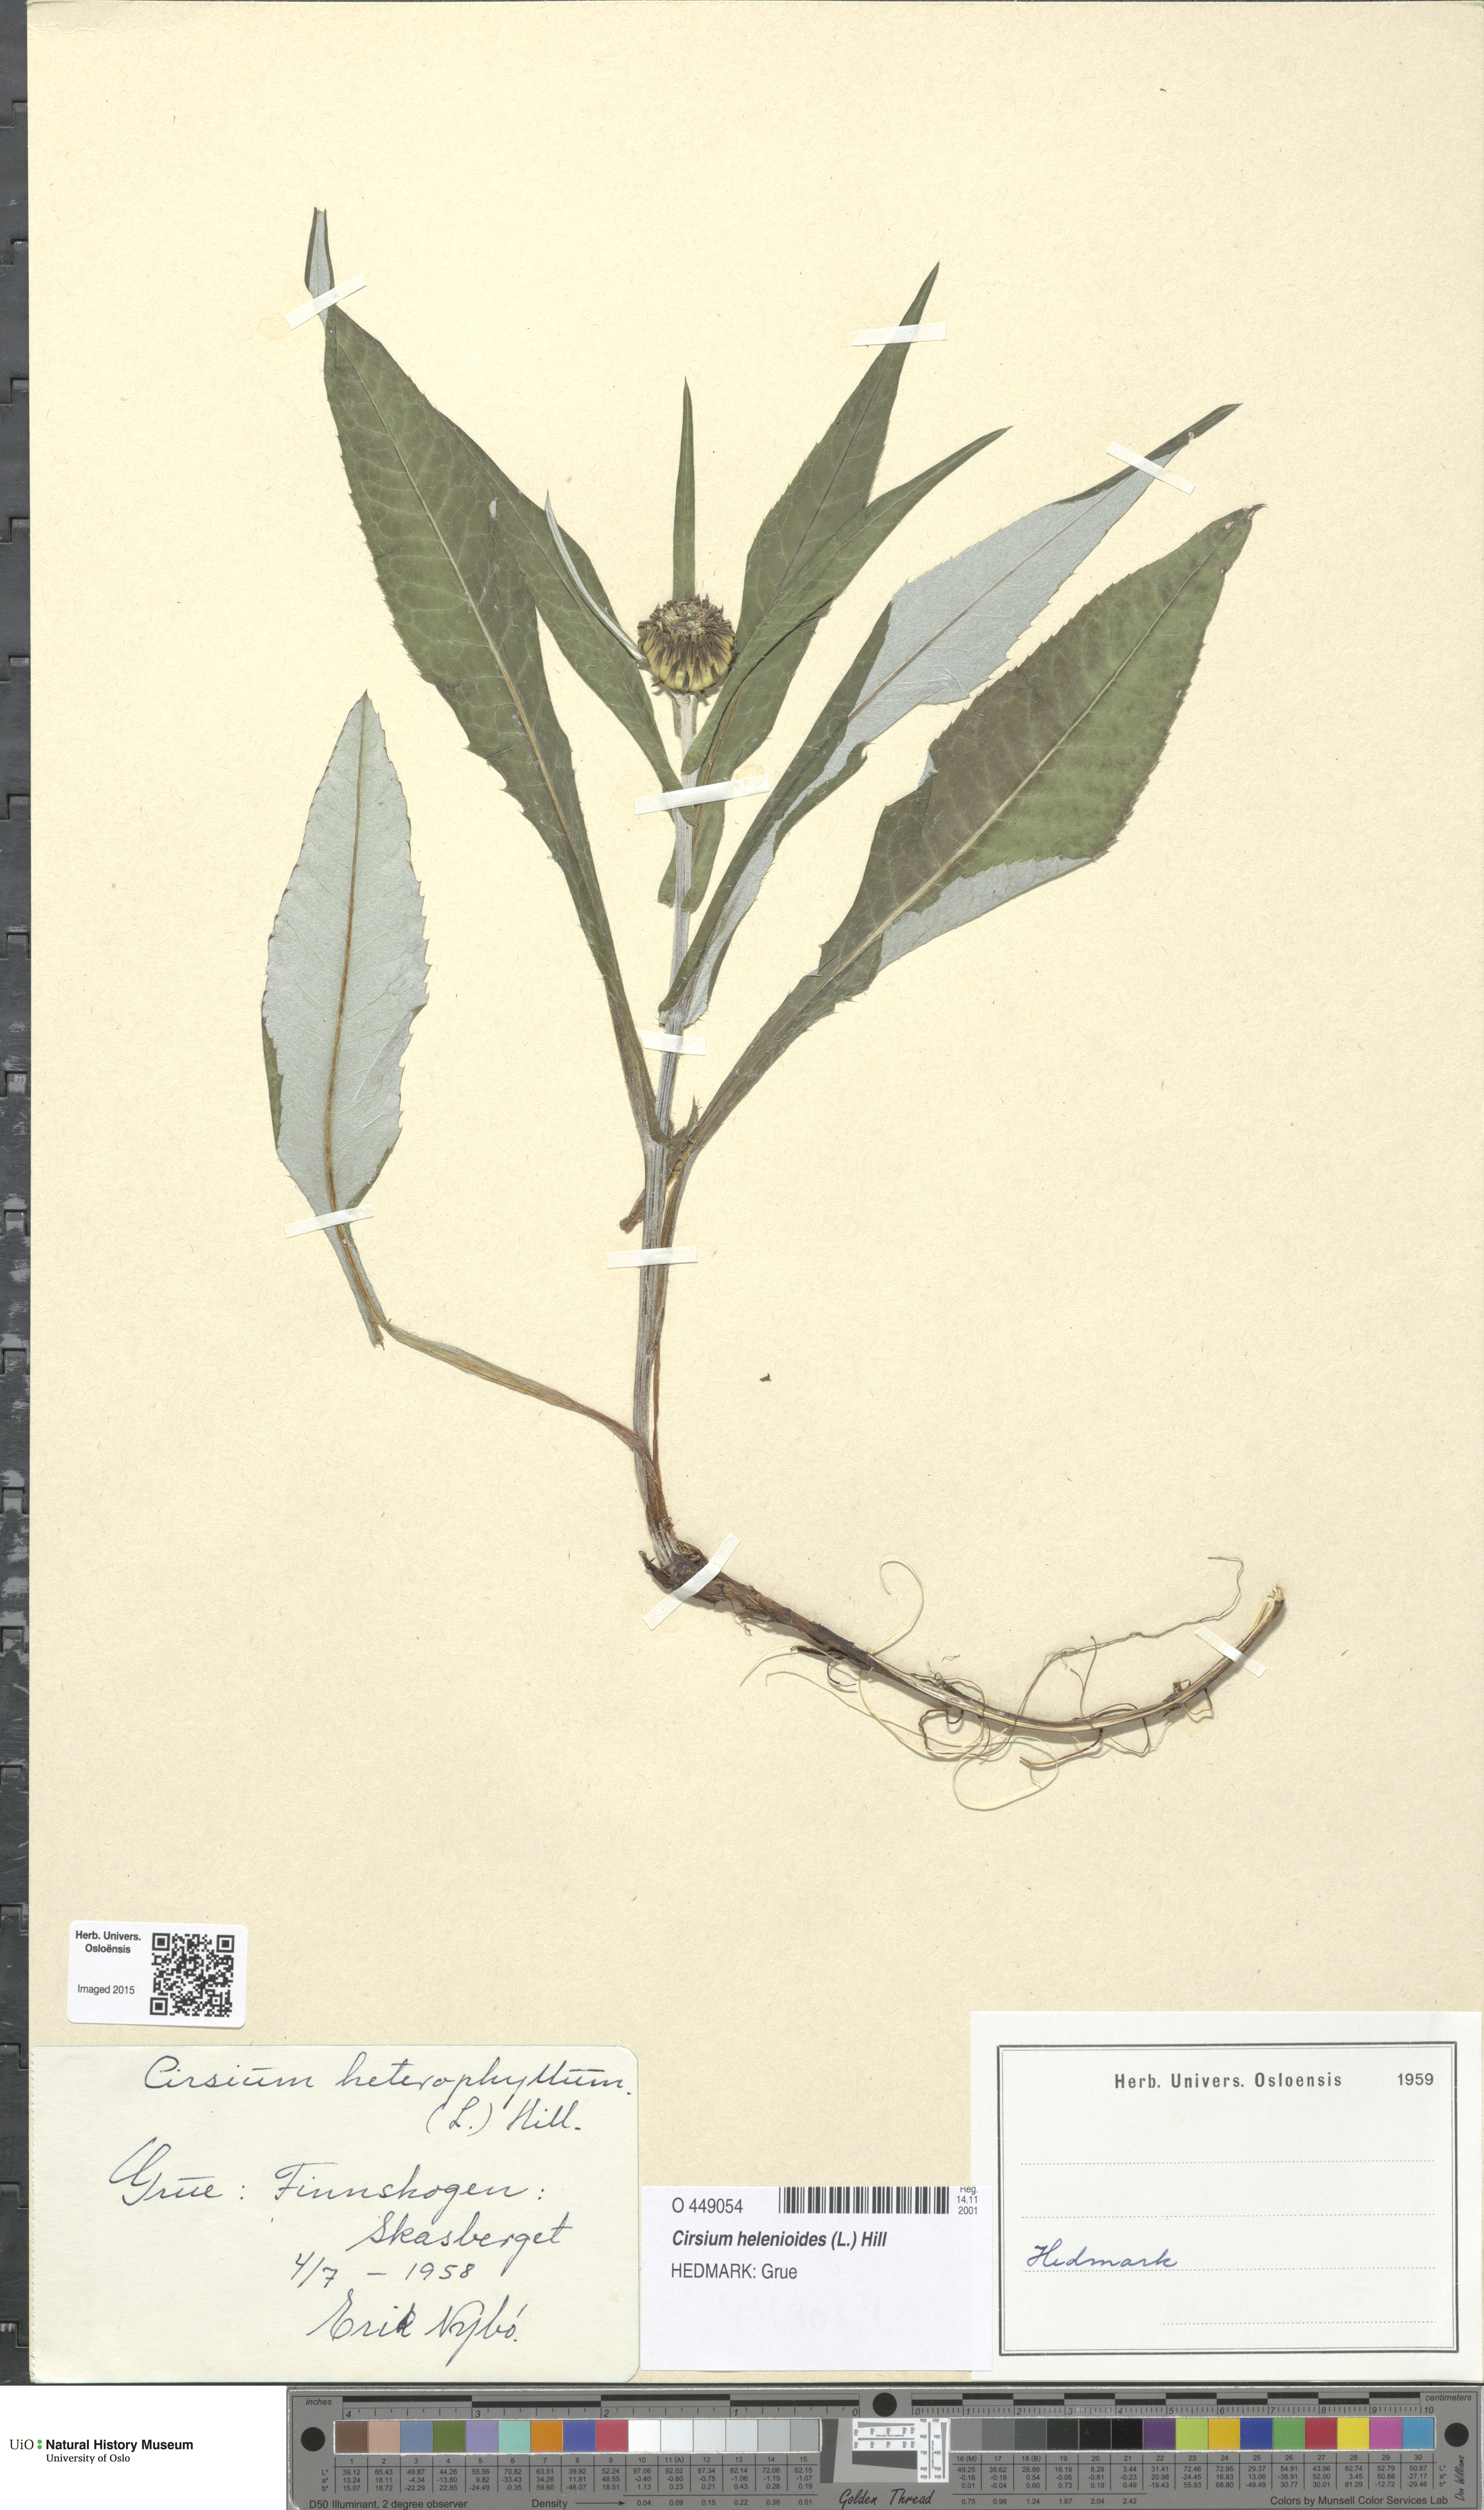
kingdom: Plantae
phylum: Tracheophyta
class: Magnoliopsida
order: Asterales
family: Asteraceae
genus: Cirsium
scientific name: Cirsium heterophyllum
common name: Melancholy thistle
